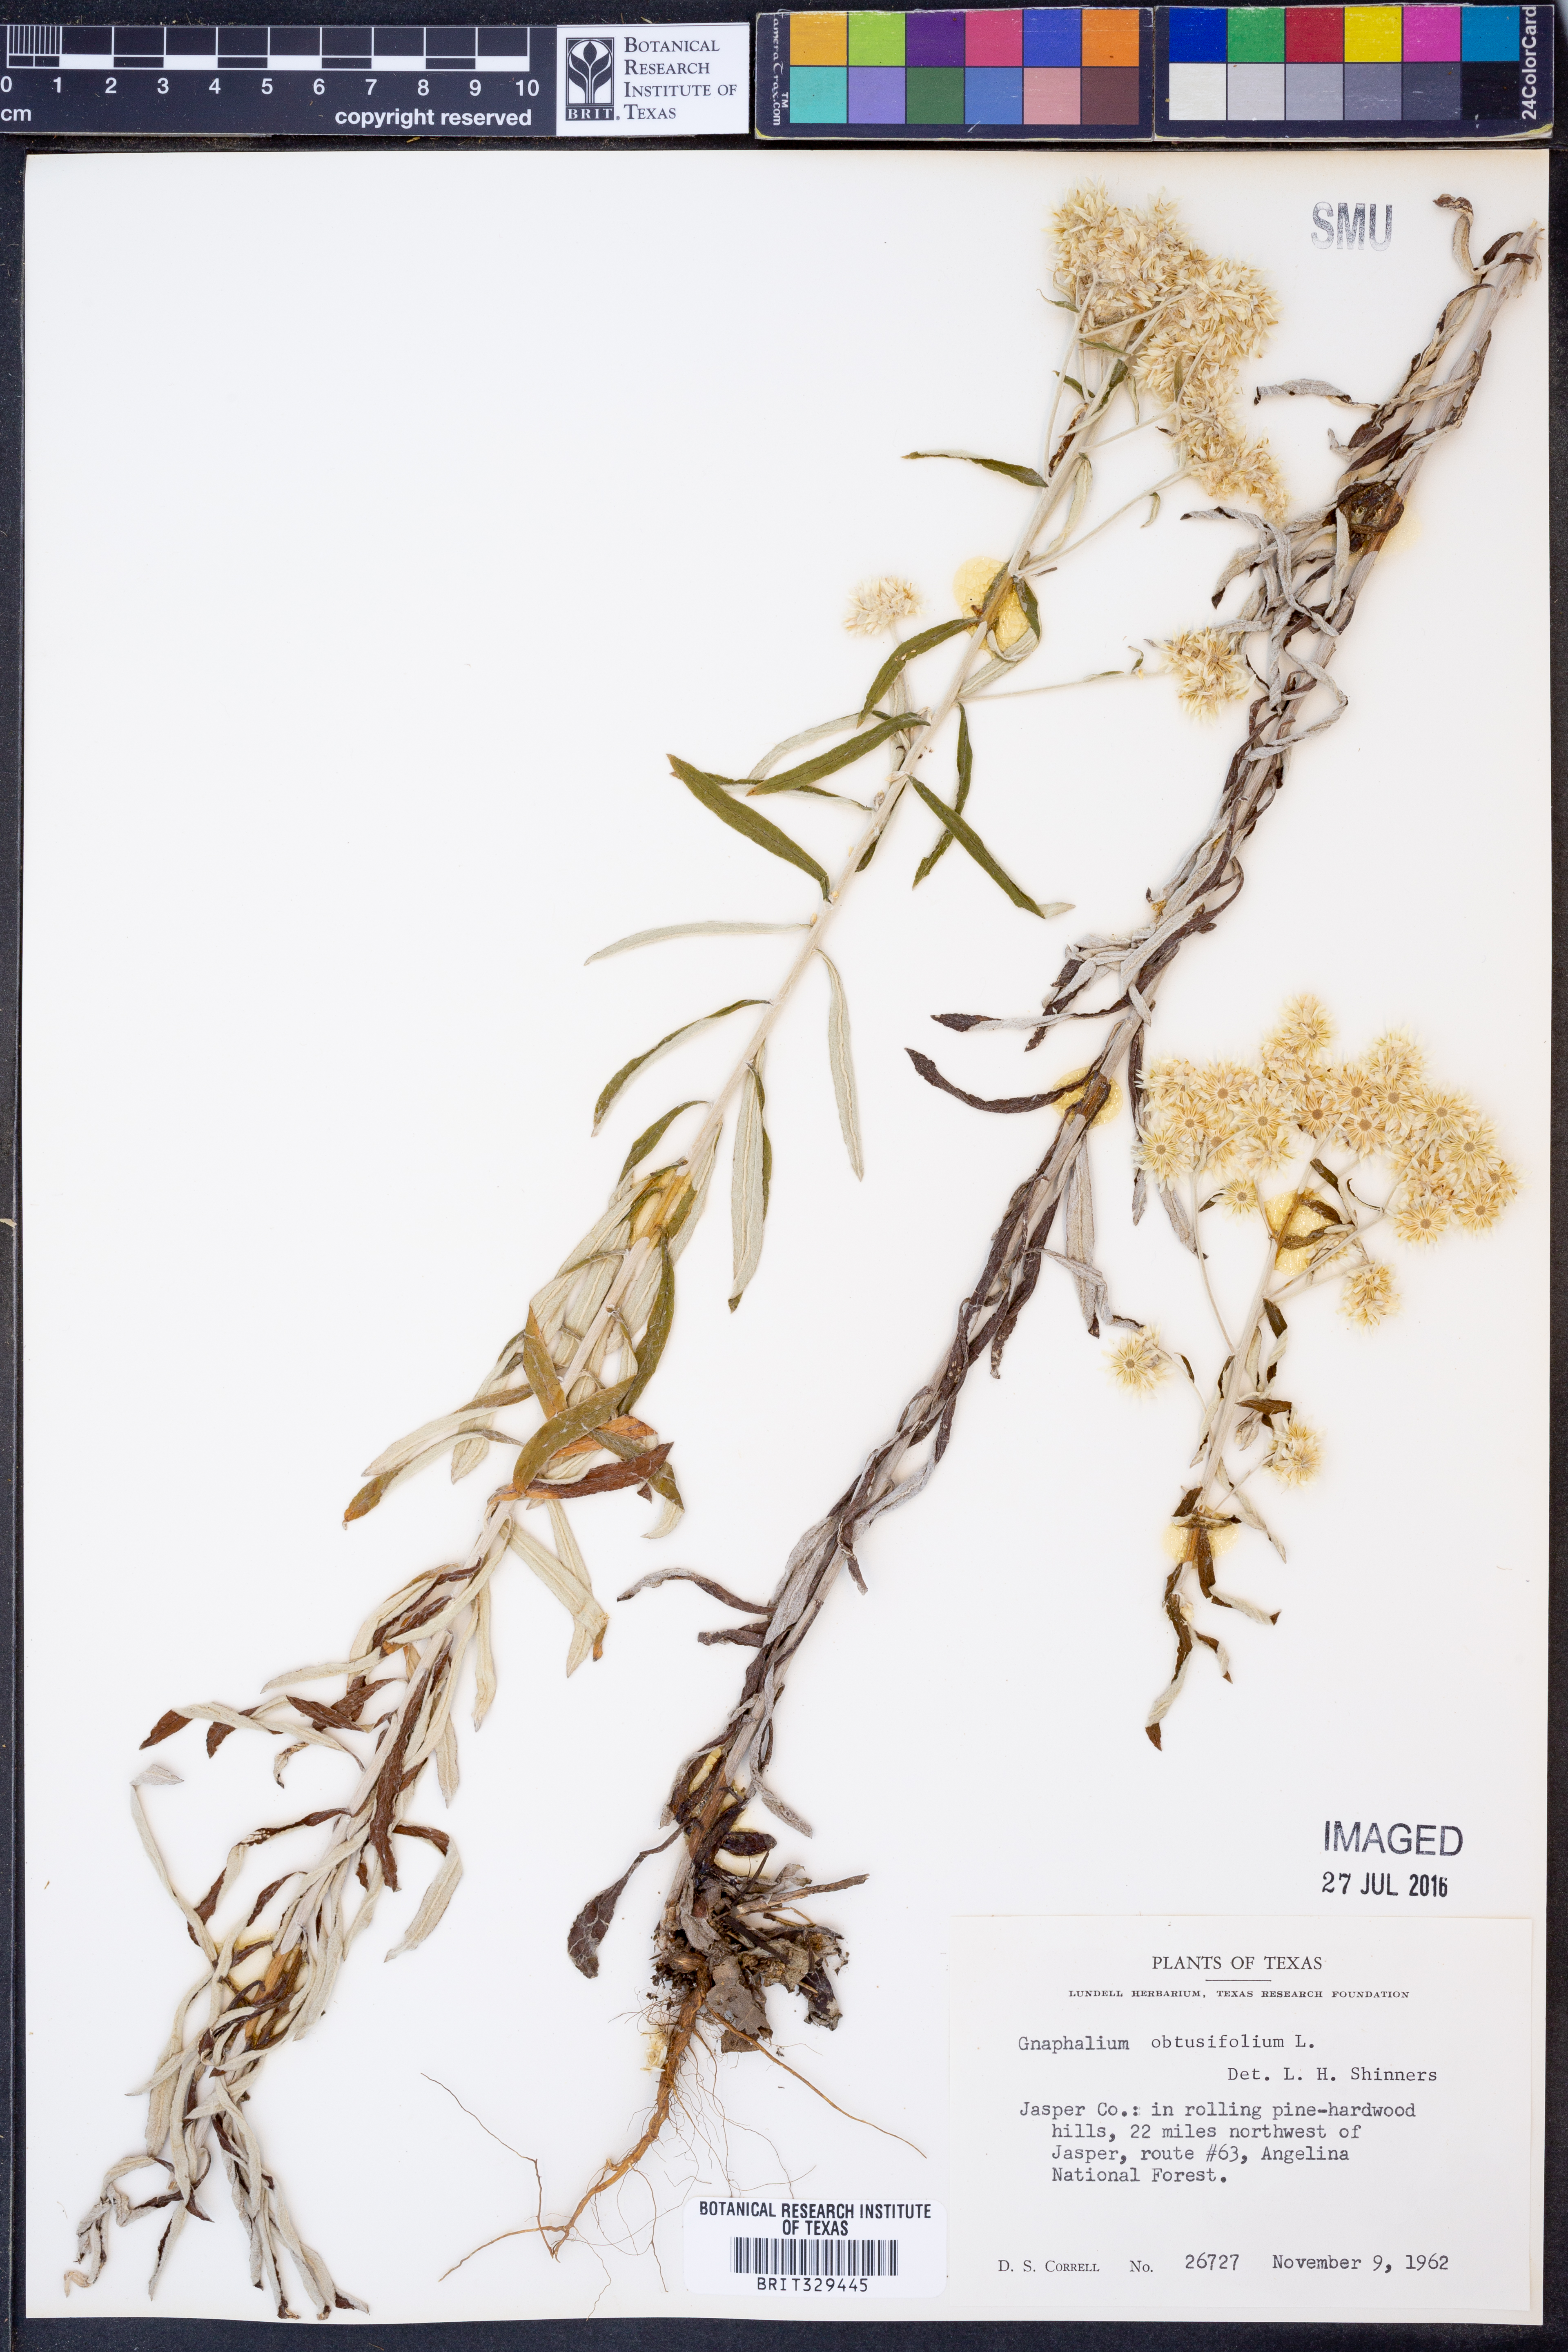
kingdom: Plantae
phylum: Tracheophyta
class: Magnoliopsida
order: Asterales
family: Asteraceae
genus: Pseudognaphalium
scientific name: Pseudognaphalium obtusifolium
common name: Eastern rabbit-tobacco
